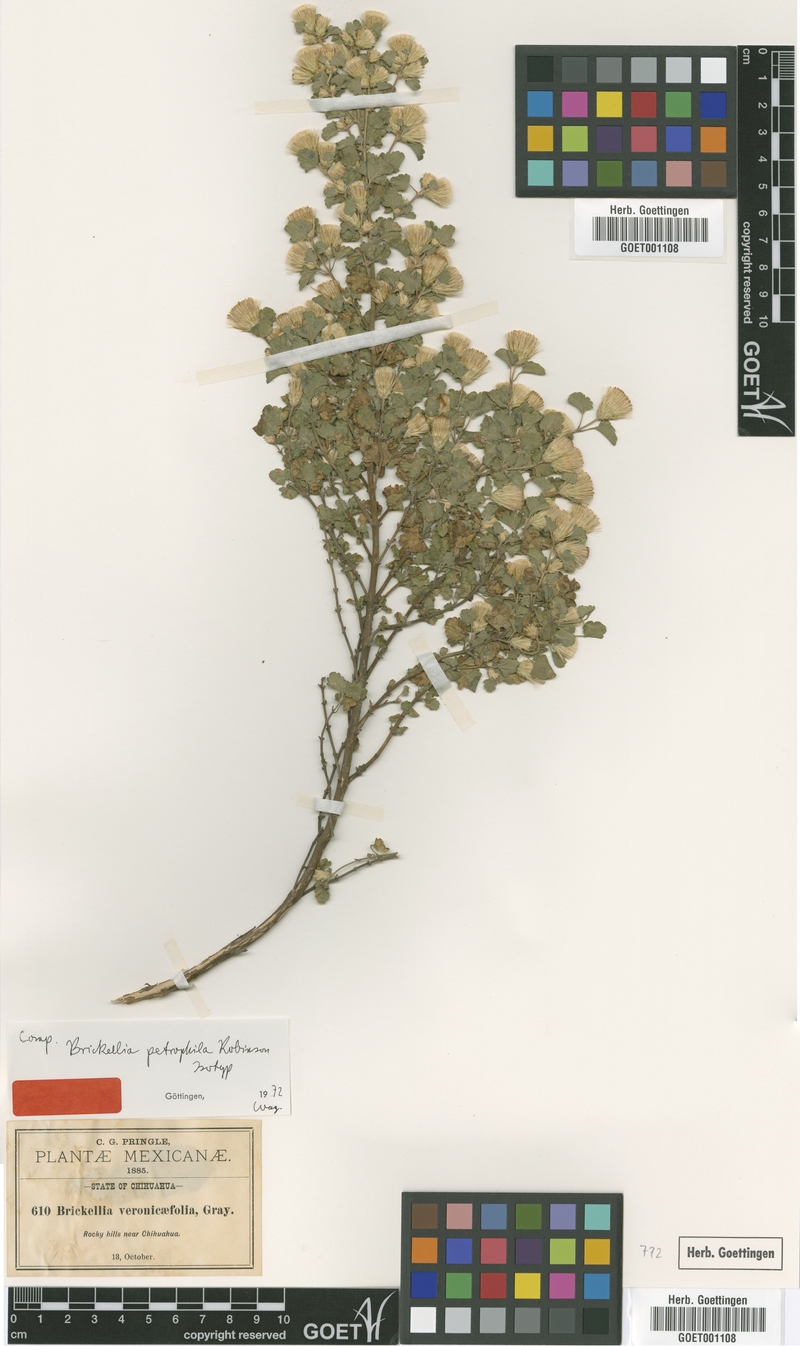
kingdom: Plantae
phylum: Tracheophyta
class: Magnoliopsida
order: Asterales
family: Asteraceae
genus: Brickellia
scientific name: Brickellia veronicifolia
